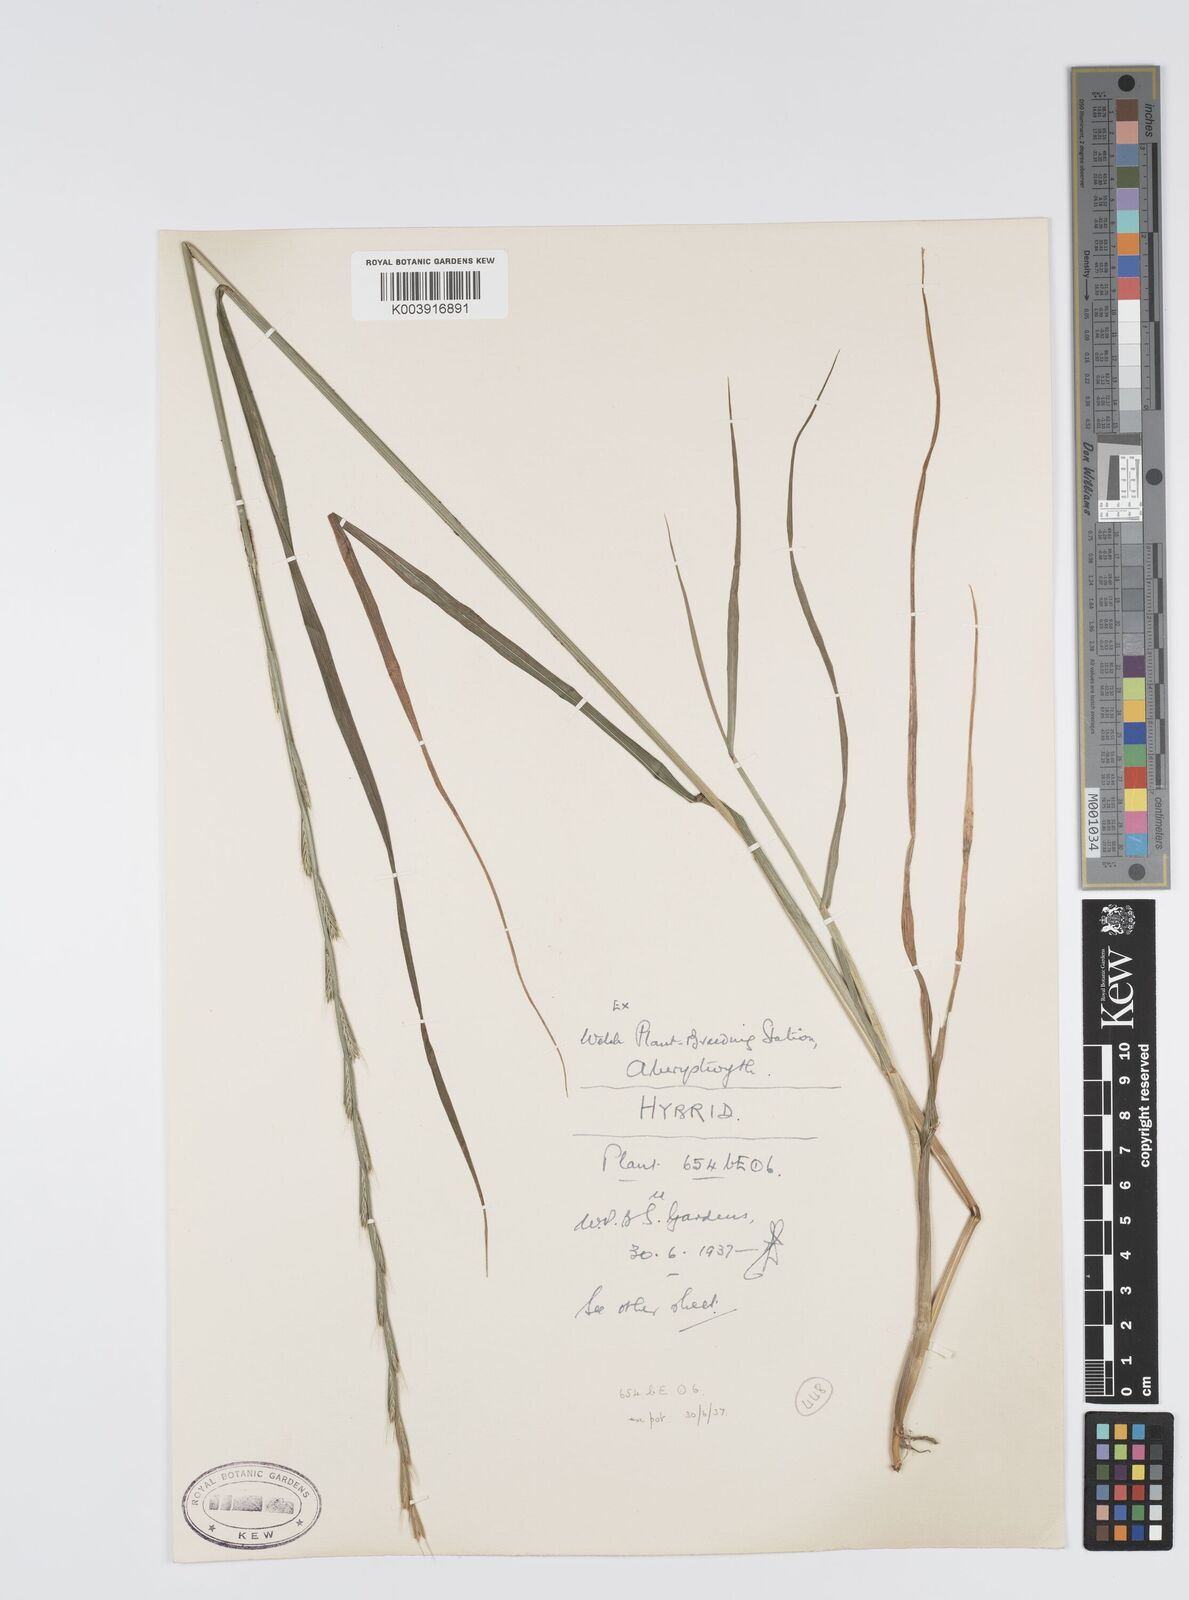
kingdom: Plantae
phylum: Tracheophyta
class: Liliopsida
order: Poales
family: Poaceae
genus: Lolium
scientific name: Lolium multiflorum
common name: Annual ryegrass
